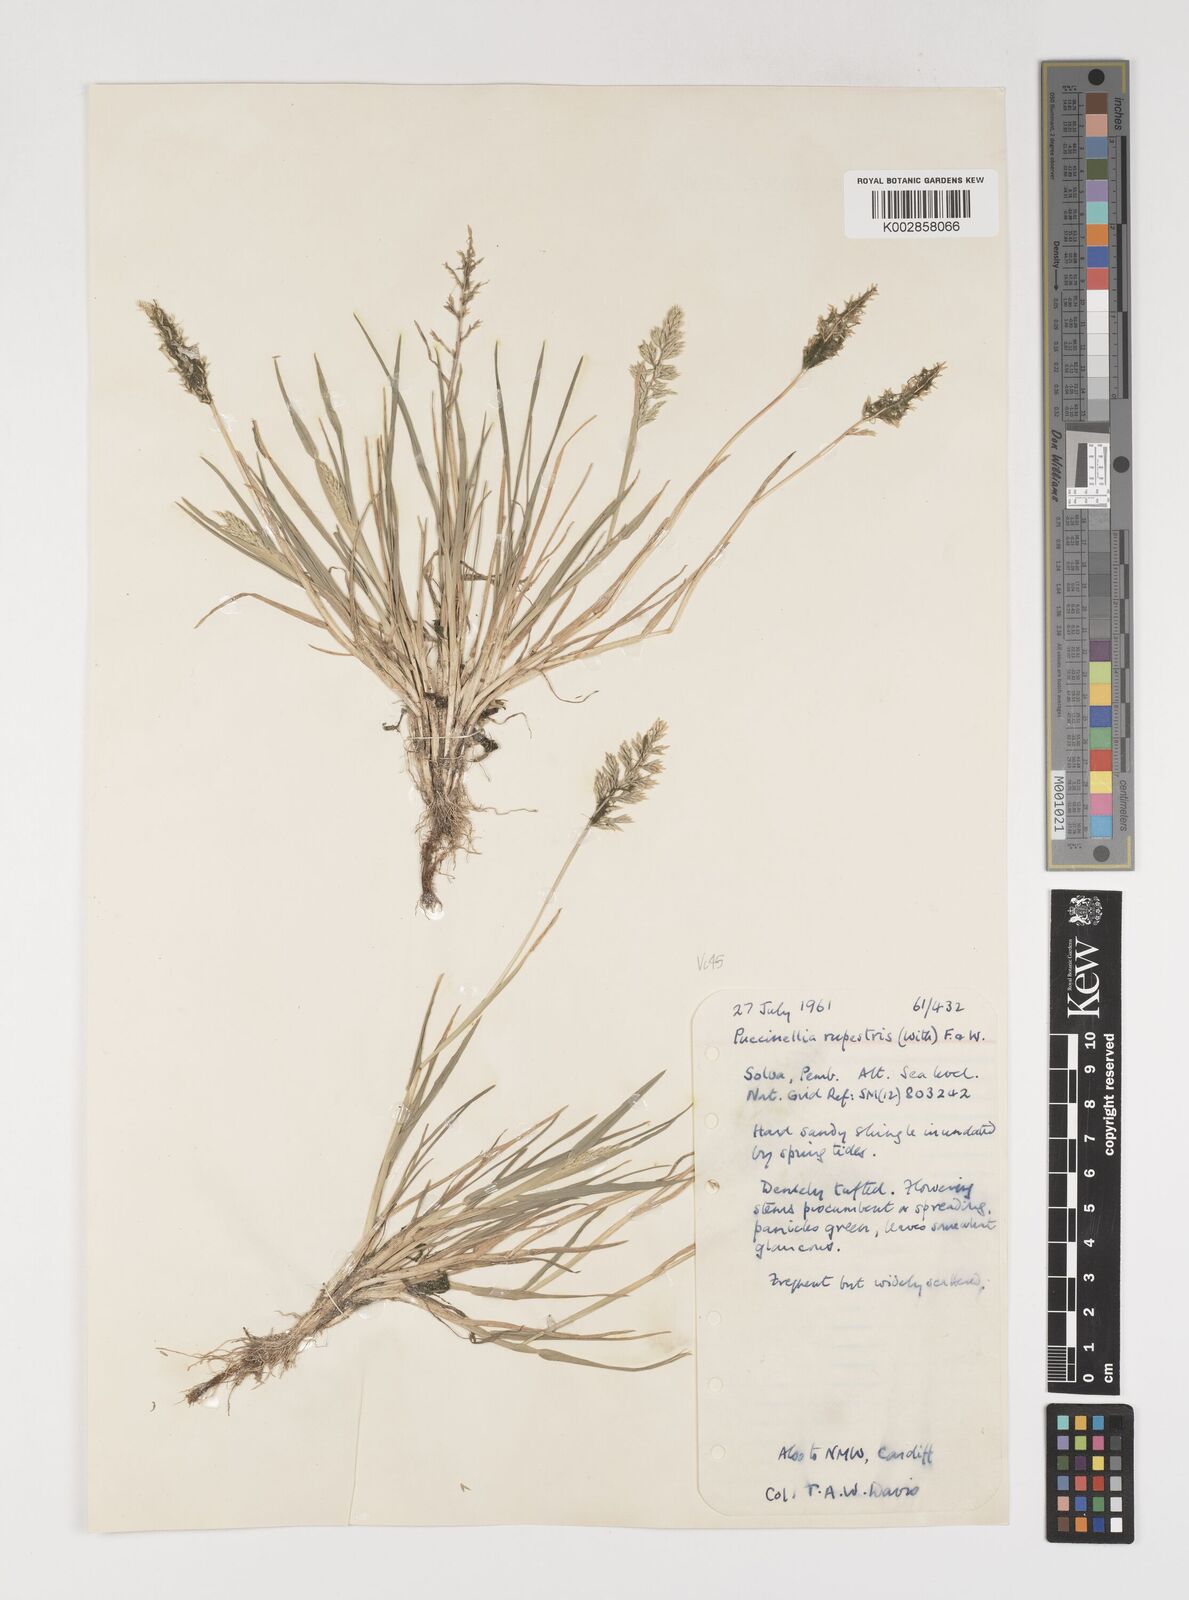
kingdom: Plantae
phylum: Tracheophyta
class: Liliopsida
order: Poales
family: Poaceae
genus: Puccinellia
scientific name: Puccinellia rupestris
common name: Stiff saltmarsh-grass
